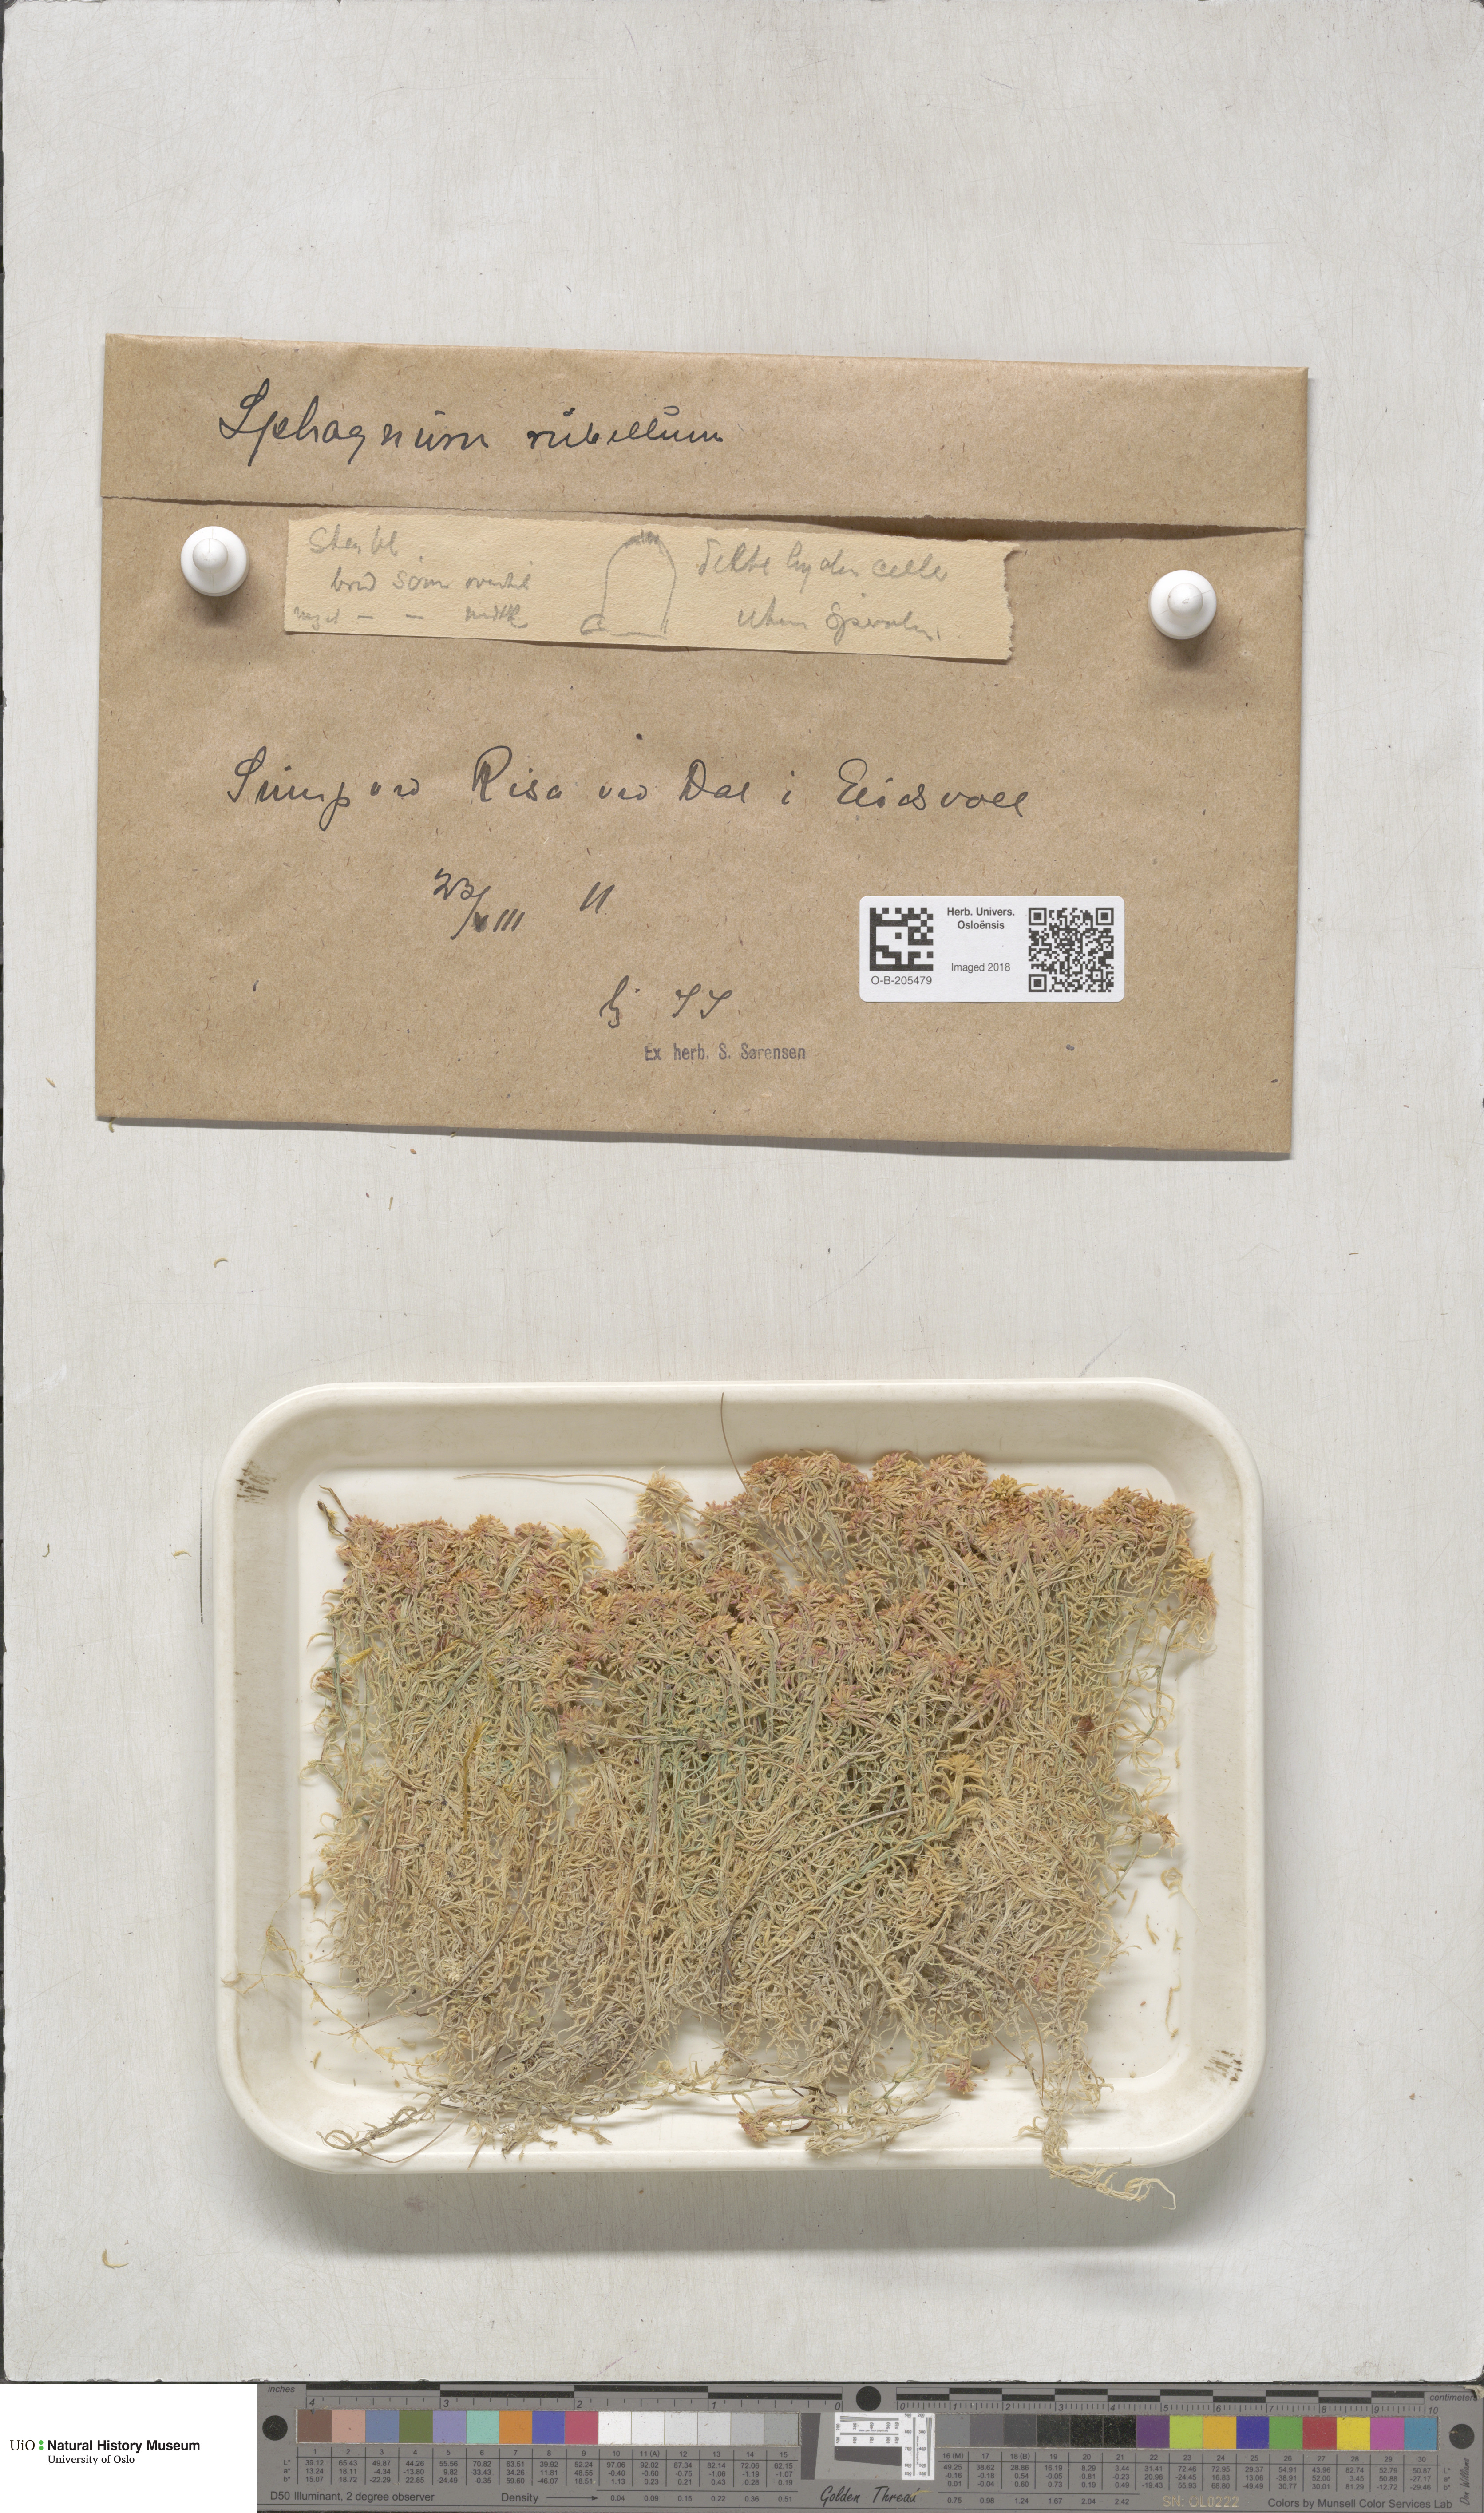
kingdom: Plantae
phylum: Bryophyta
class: Sphagnopsida
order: Sphagnales
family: Sphagnaceae
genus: Sphagnum
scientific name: Sphagnum rubellum
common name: Red peat moss
